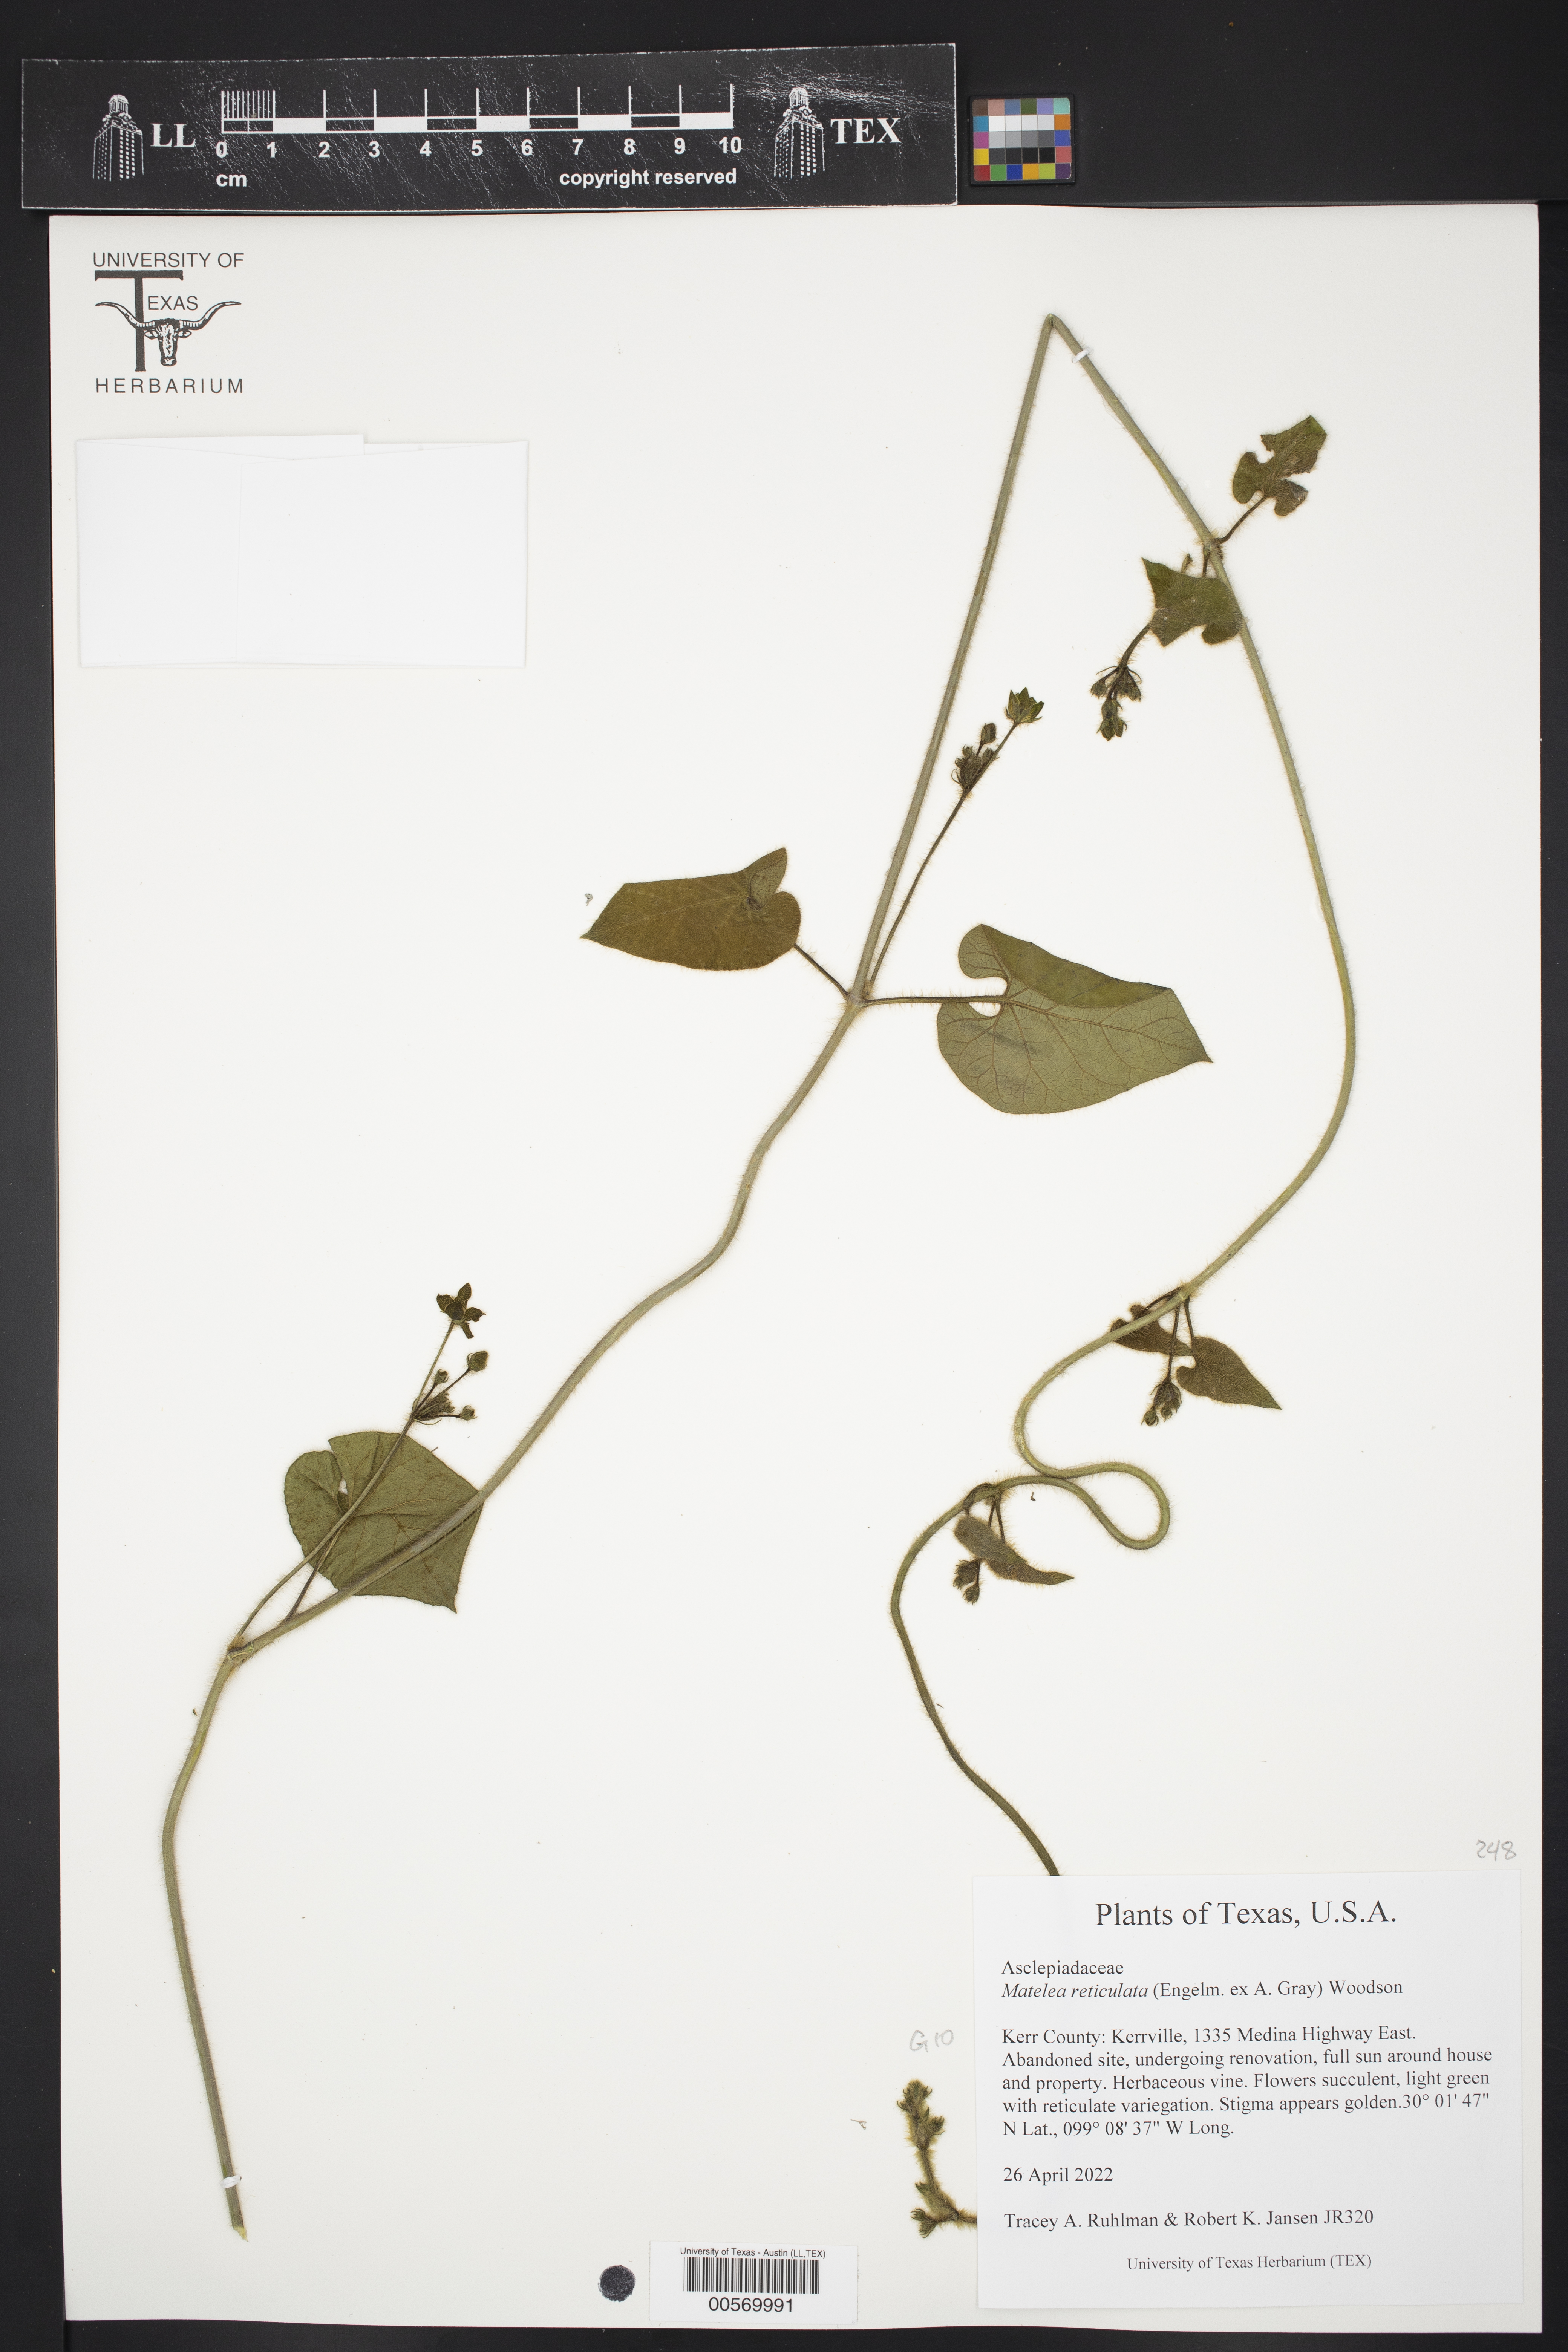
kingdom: Plantae
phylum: Tracheophyta
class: Magnoliopsida
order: Gentianales
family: Apocynaceae
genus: Dictyanthus
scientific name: Dictyanthus reticulatus
